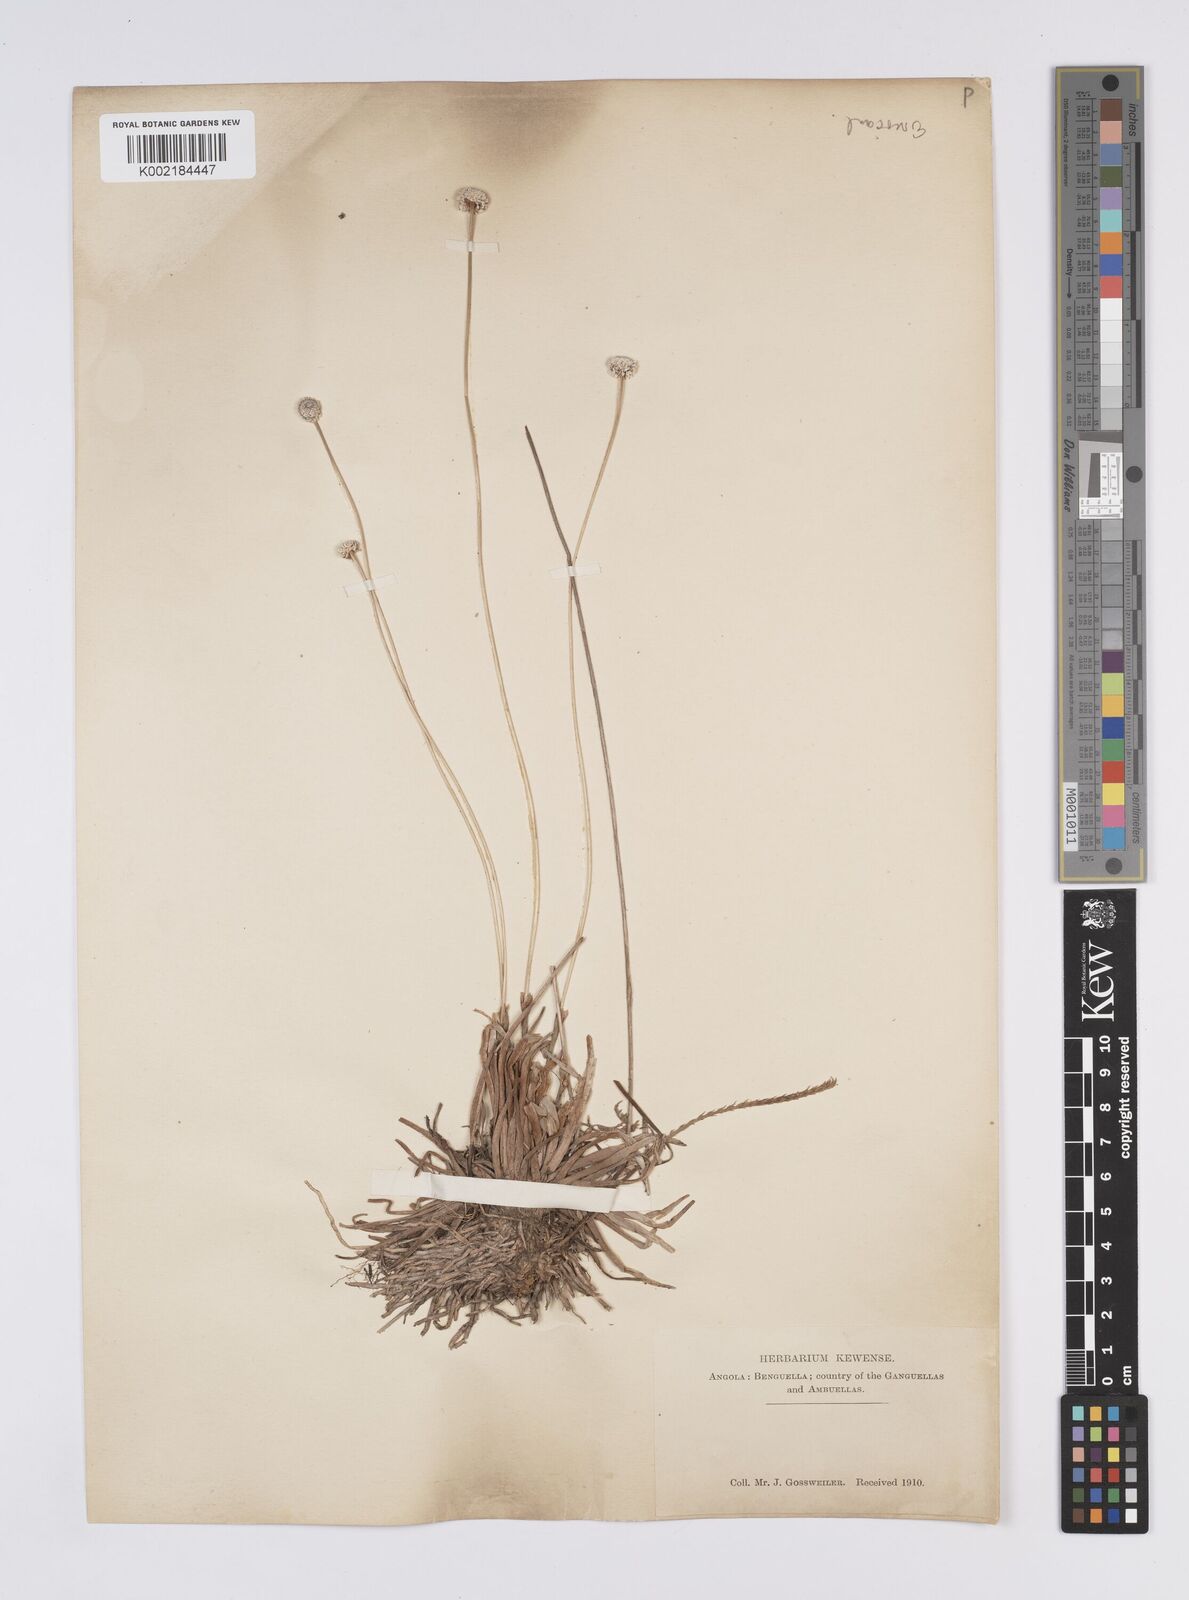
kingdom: Plantae
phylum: Tracheophyta
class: Liliopsida
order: Poales
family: Eriocaulaceae
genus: Eriocaulon
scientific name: Eriocaulon
